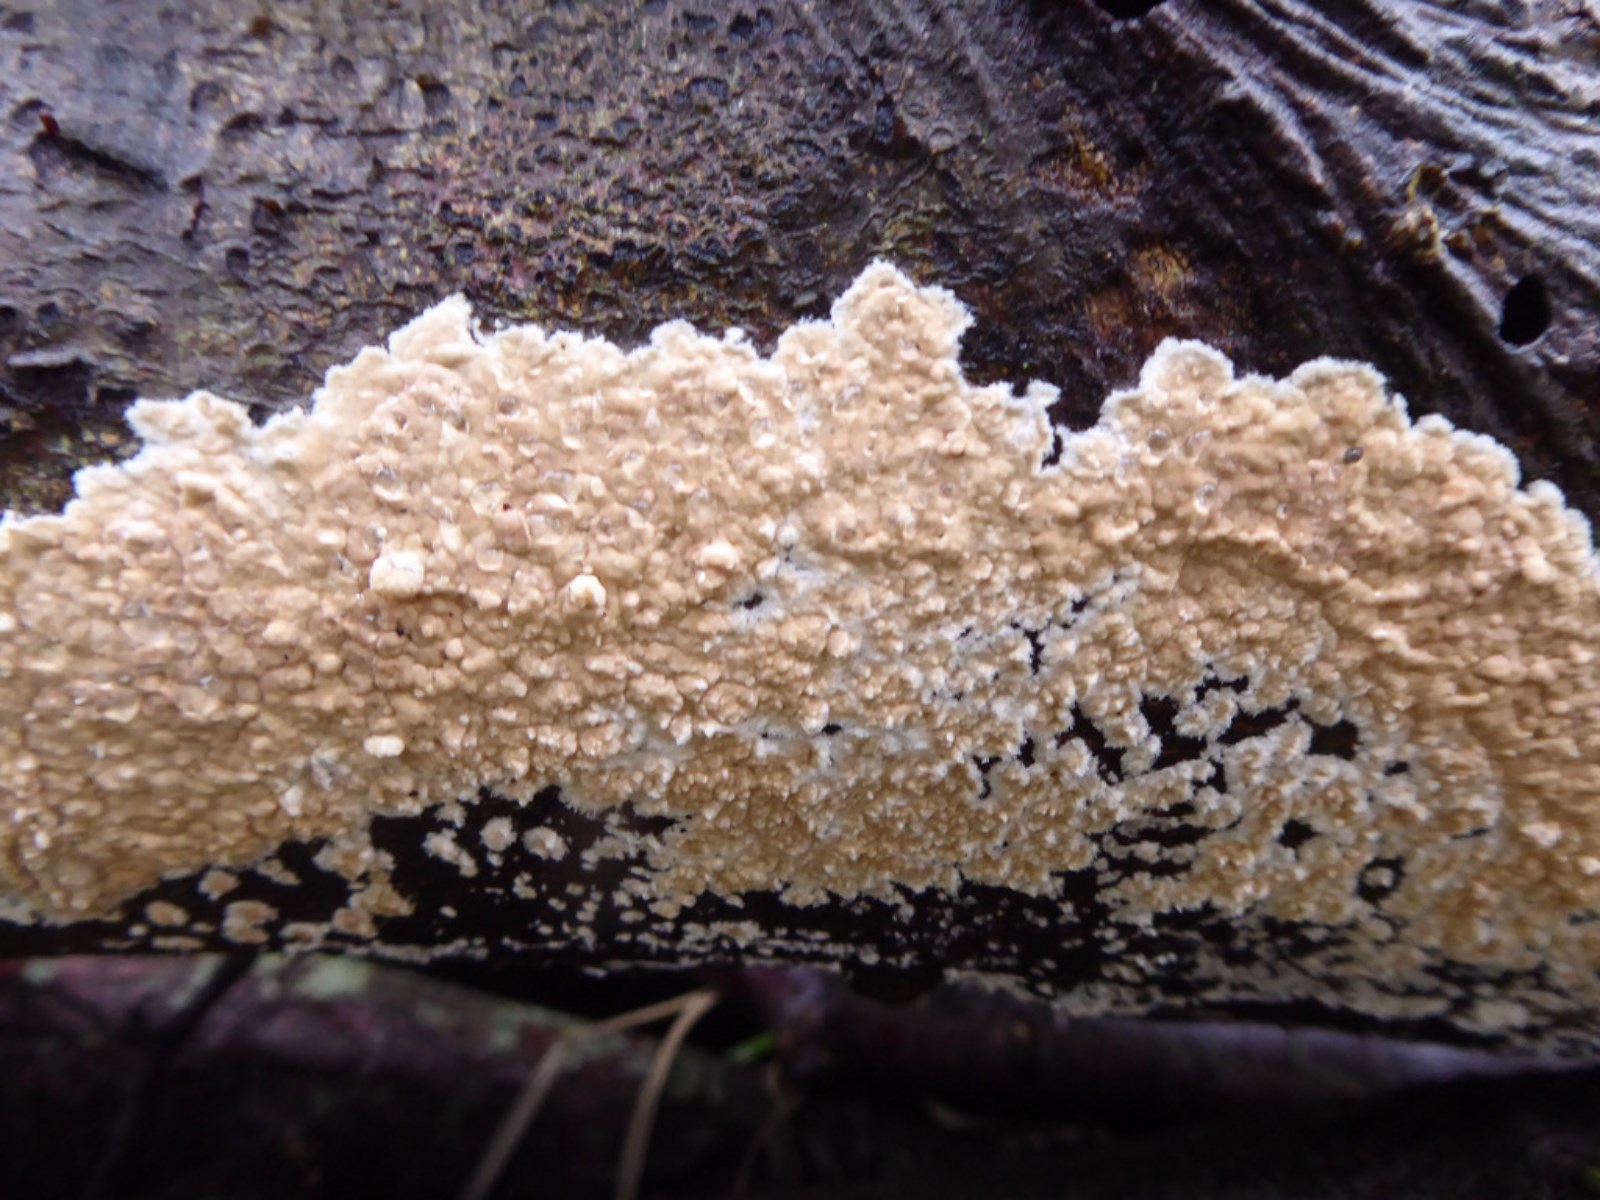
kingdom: Fungi
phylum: Basidiomycota
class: Agaricomycetes
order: Agaricales
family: Physalacriaceae
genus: Cylindrobasidium
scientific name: Cylindrobasidium evolvens
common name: sprækkehinde
